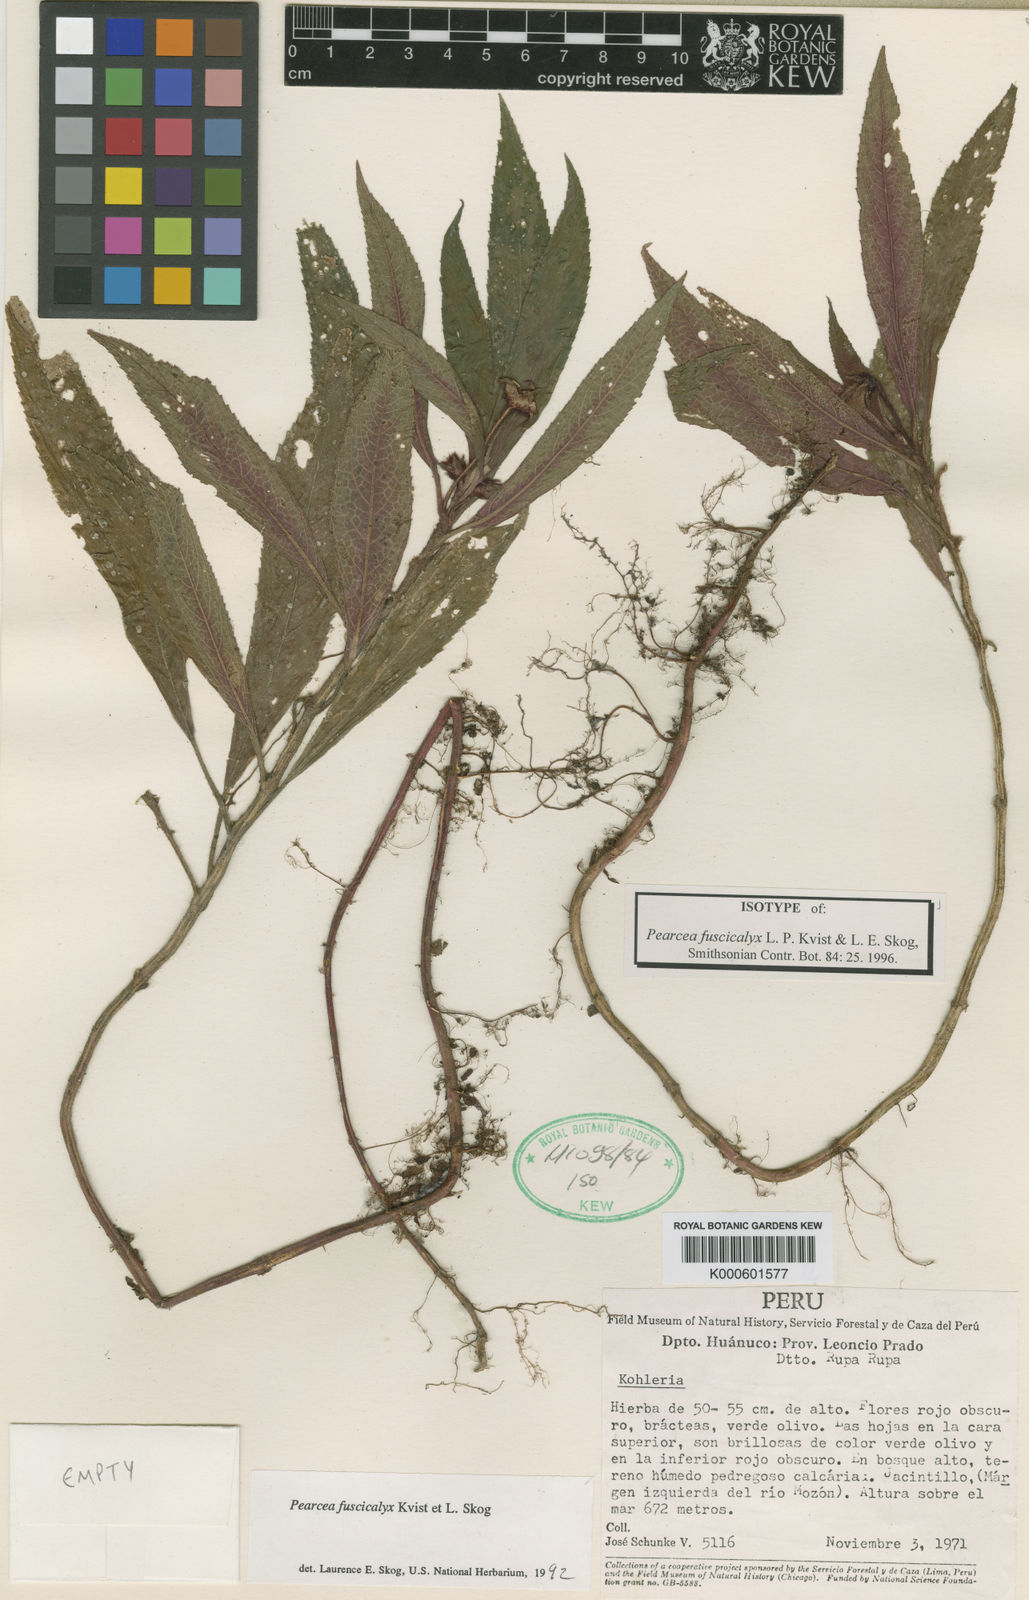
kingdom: Plantae
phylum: Tracheophyta
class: Magnoliopsida
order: Lamiales
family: Gesneriaceae
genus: Pearcea
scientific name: Pearcea fuscicalyx
